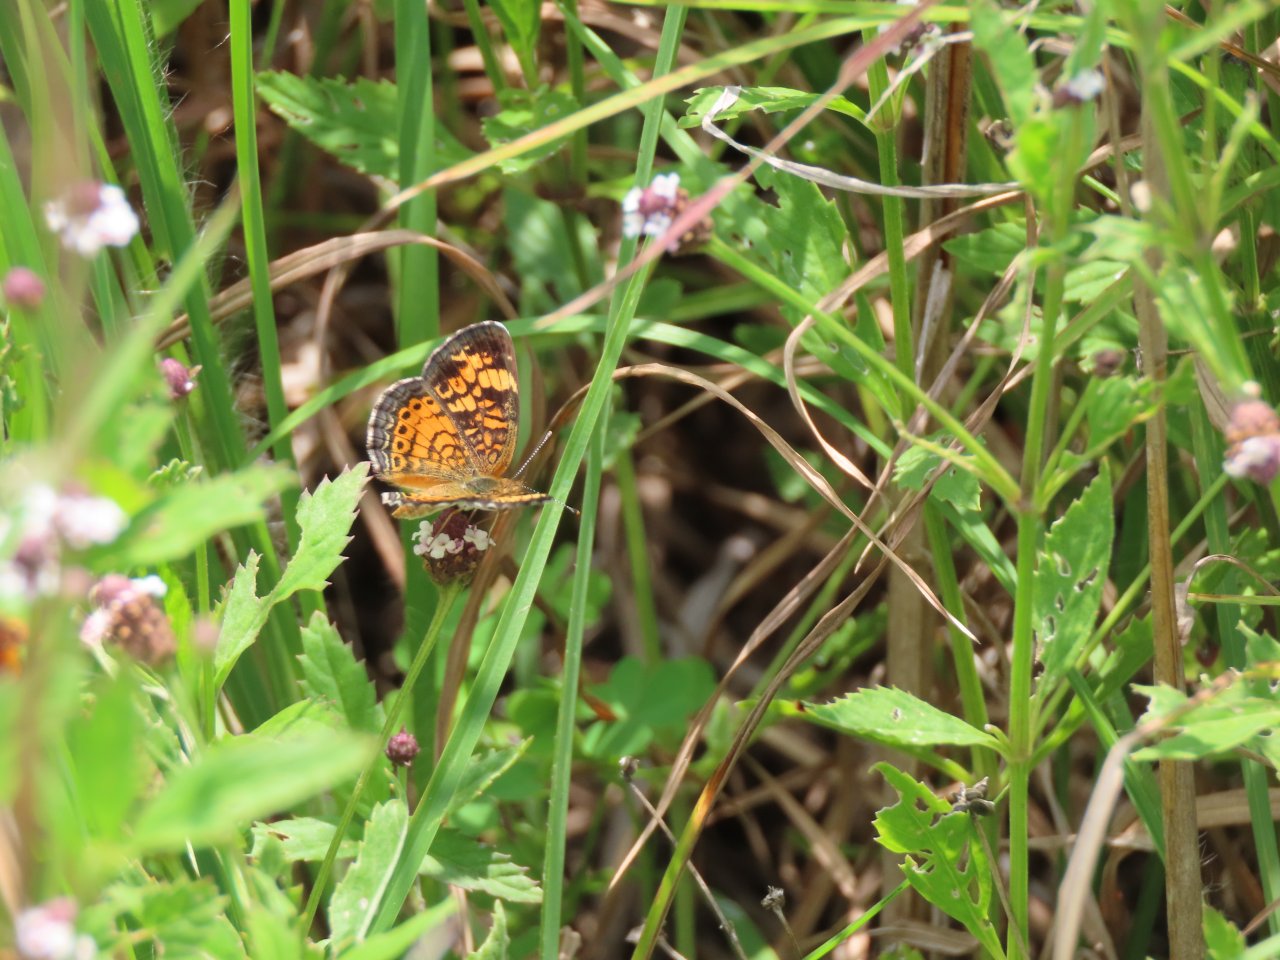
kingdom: Animalia
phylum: Arthropoda
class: Insecta
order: Lepidoptera
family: Nymphalidae
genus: Chlosyne
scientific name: Chlosyne nycteis
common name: Silvery Checkerspot
